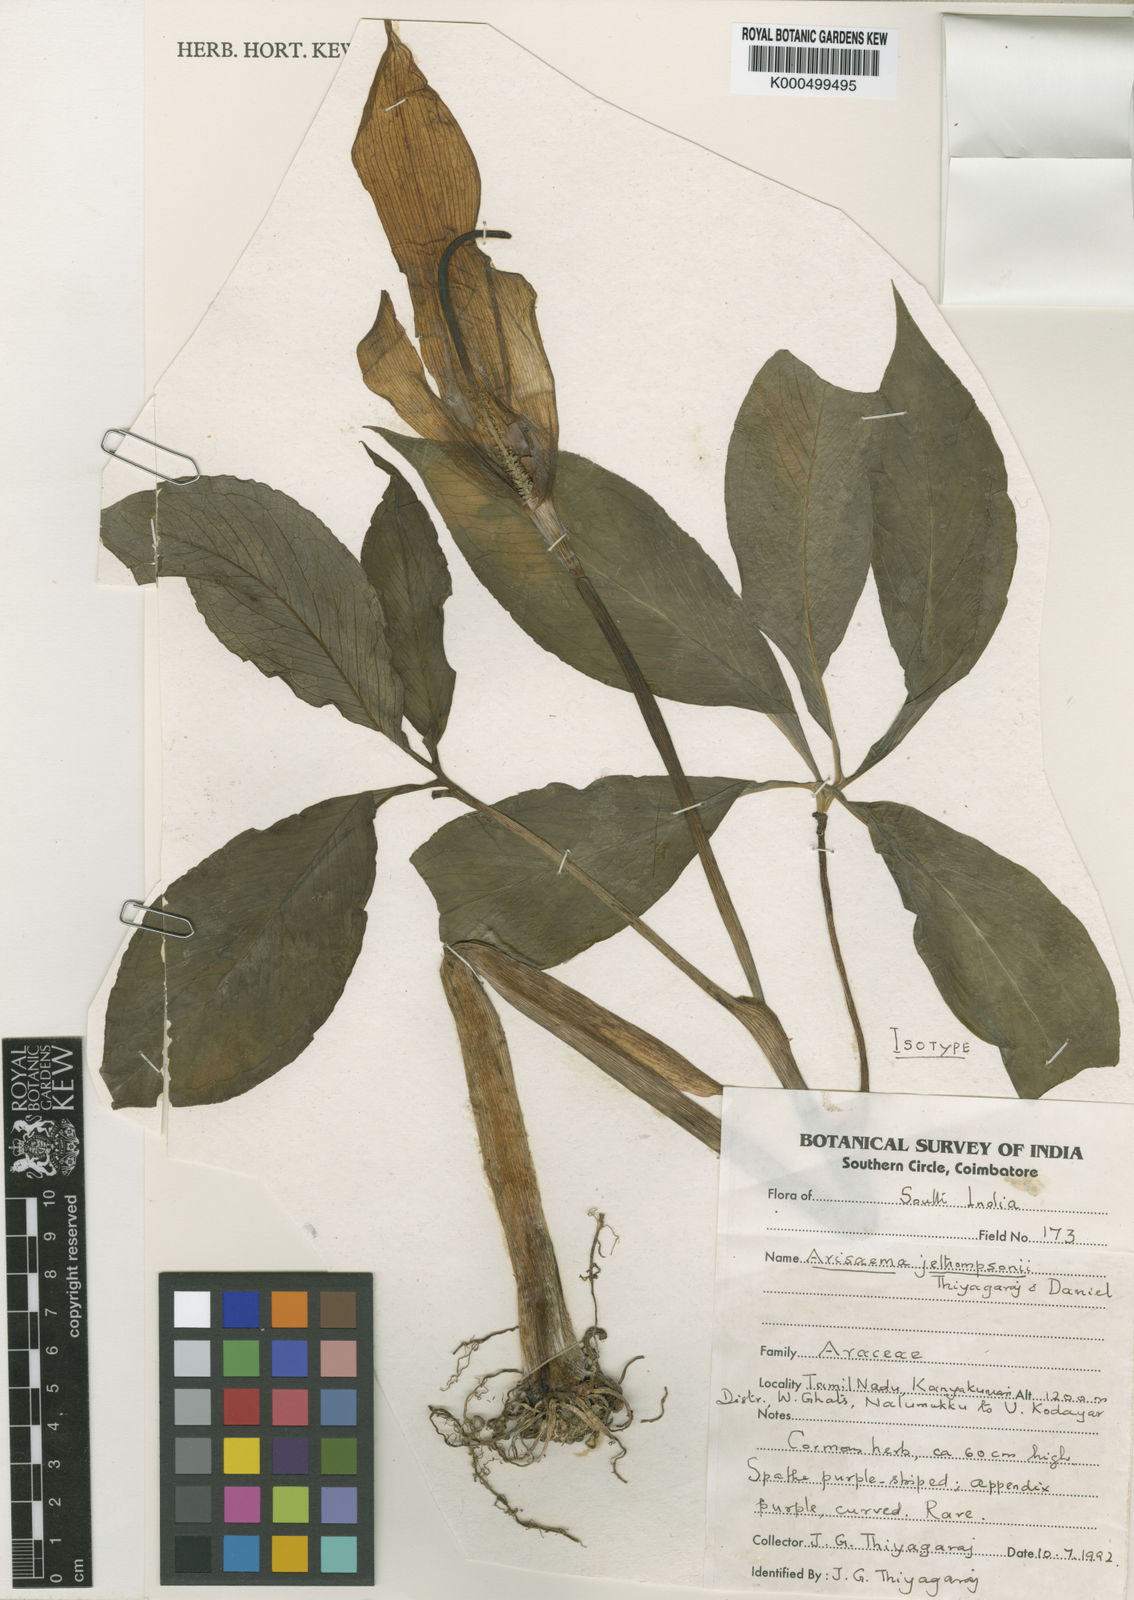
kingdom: Plantae
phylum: Tracheophyta
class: Liliopsida
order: Alismatales
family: Araceae
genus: Arisaema
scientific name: Arisaema jethompsonii
